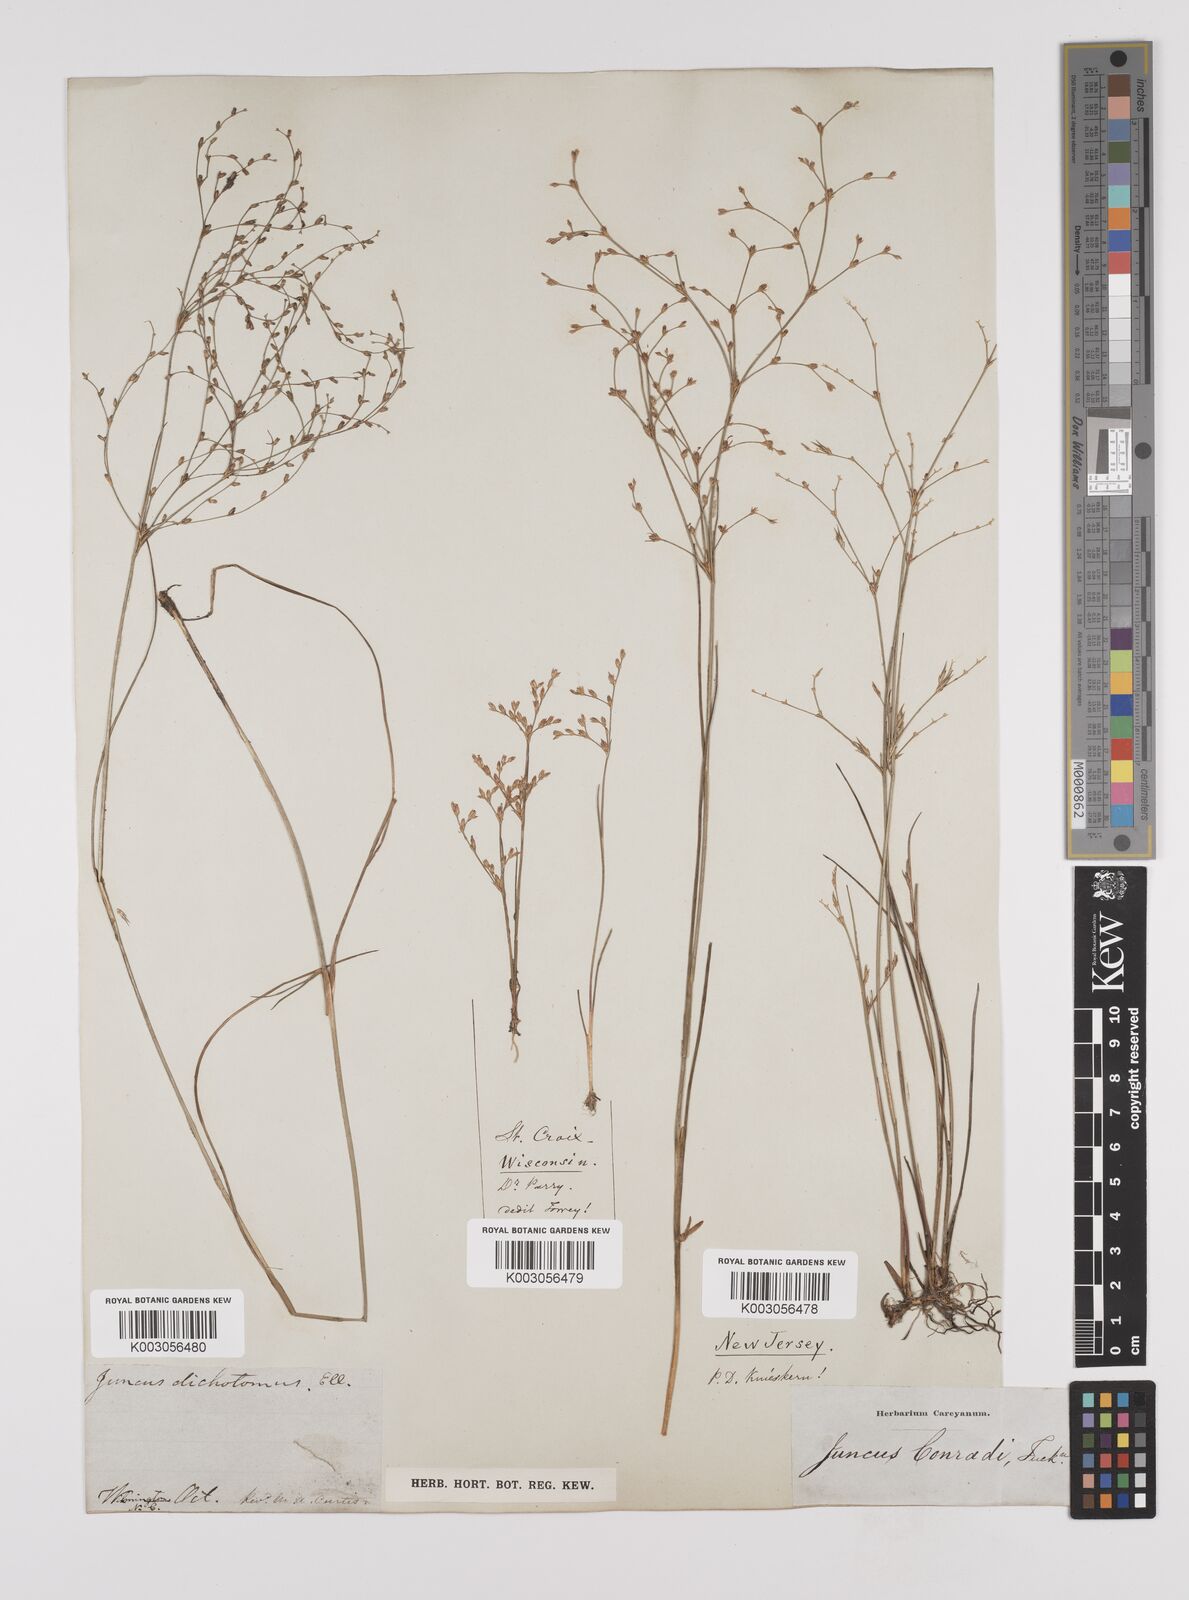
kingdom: Plantae
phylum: Tracheophyta
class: Liliopsida
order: Poales
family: Juncaceae
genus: Juncus
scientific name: Juncus dichotomus
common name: Forked rush
